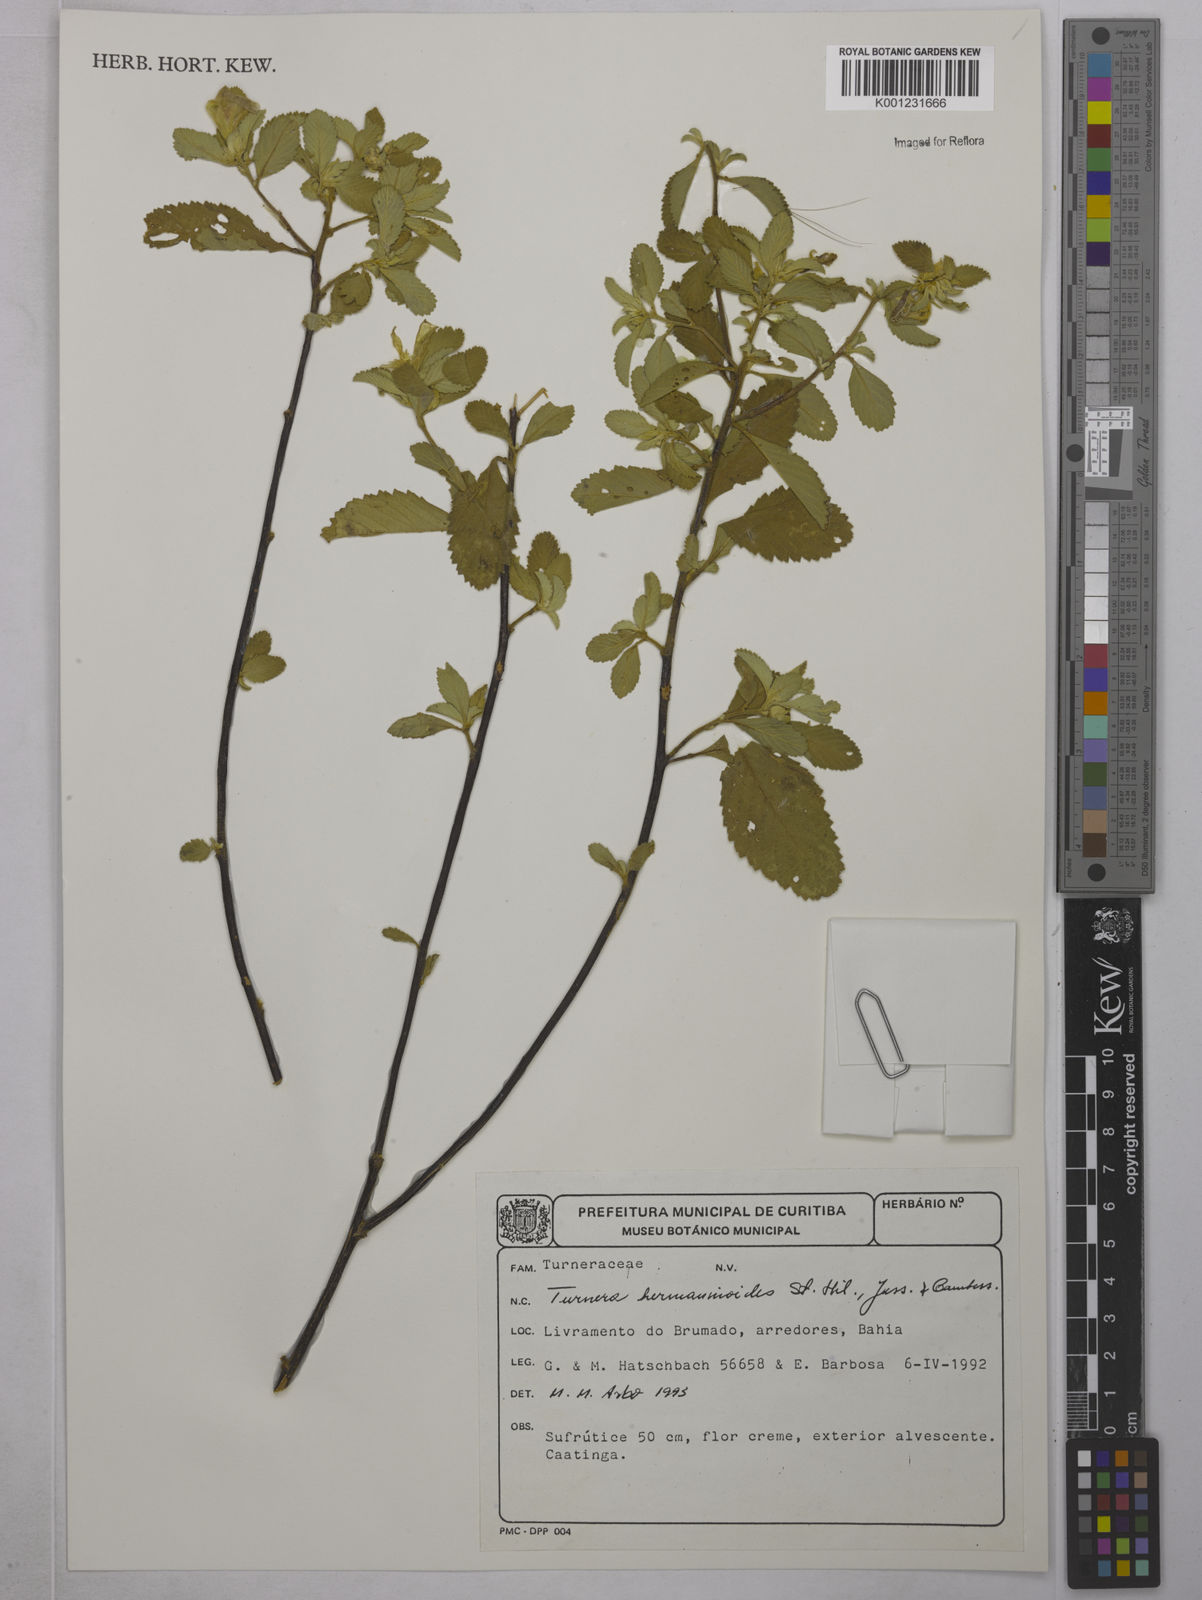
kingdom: Plantae
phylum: Tracheophyta
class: Magnoliopsida
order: Malpighiales
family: Turneraceae
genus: Turnera
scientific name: Turnera hermannioides
